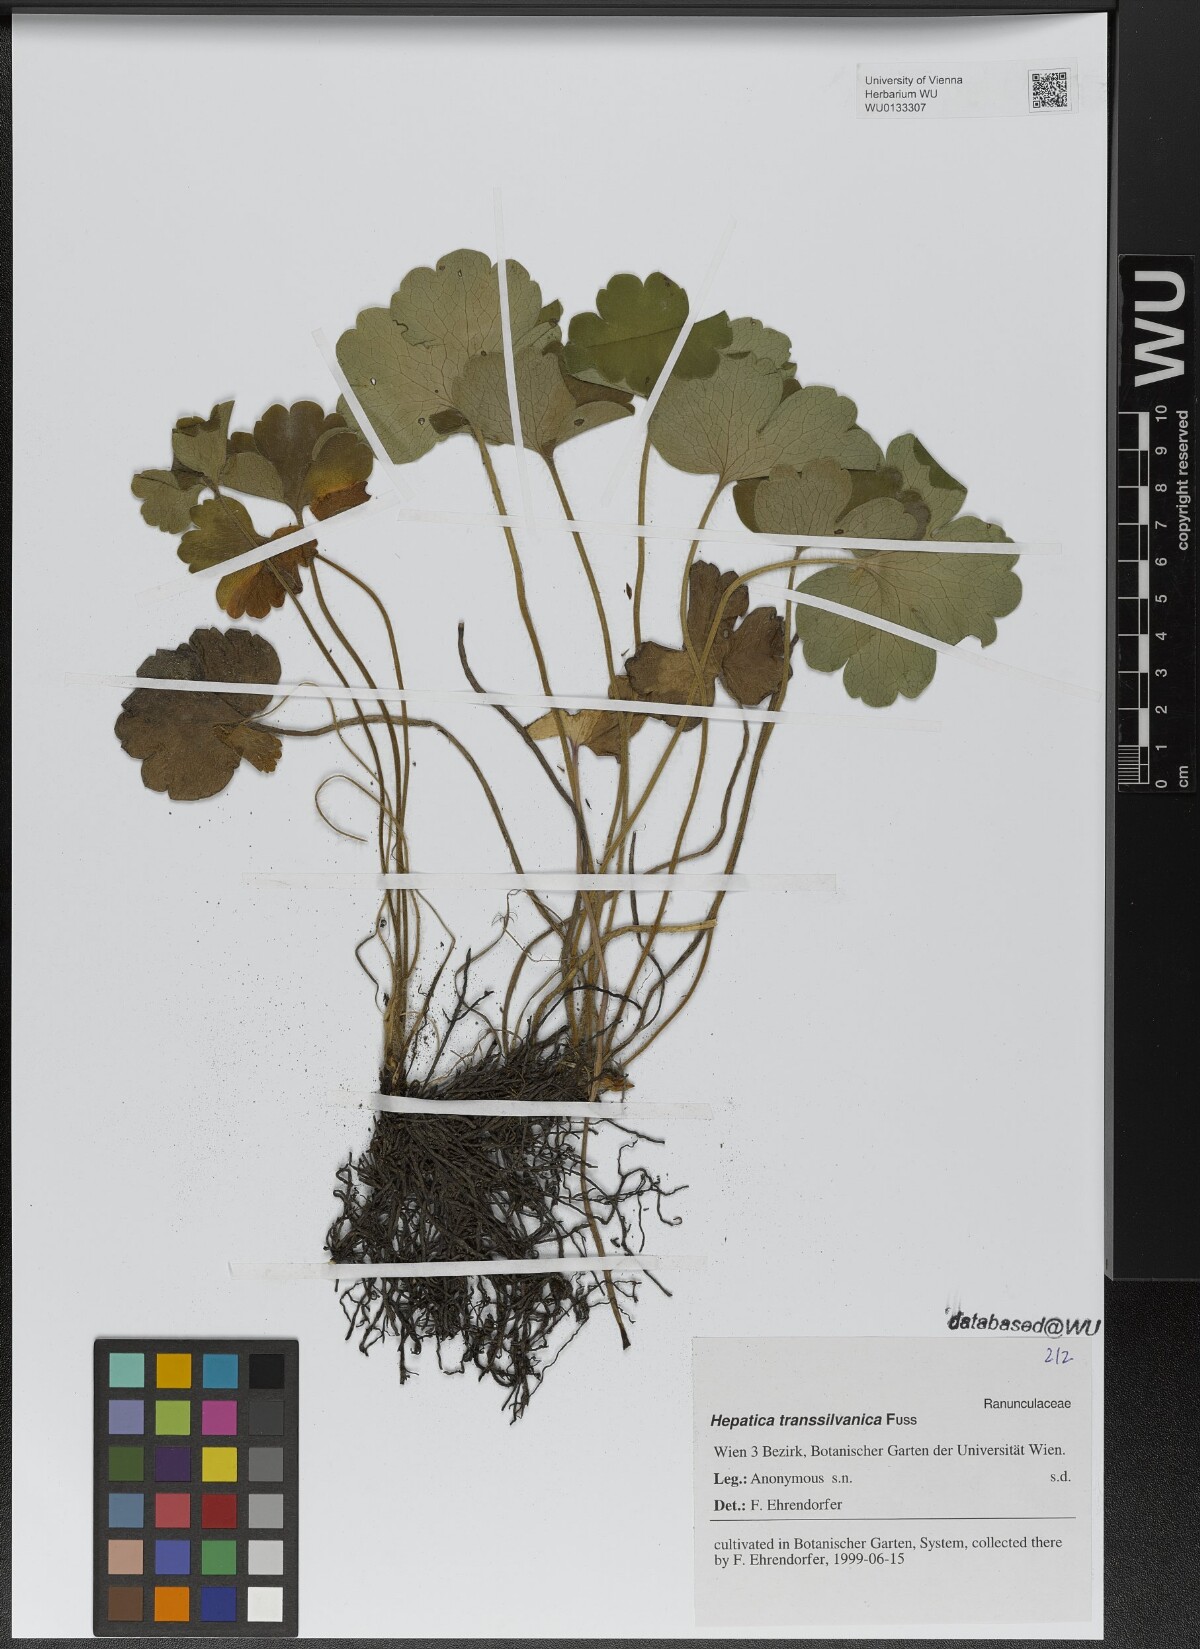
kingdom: Plantae
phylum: Tracheophyta
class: Magnoliopsida
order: Ranunculales
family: Ranunculaceae
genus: Hepatica
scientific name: Hepatica transsilvanica
